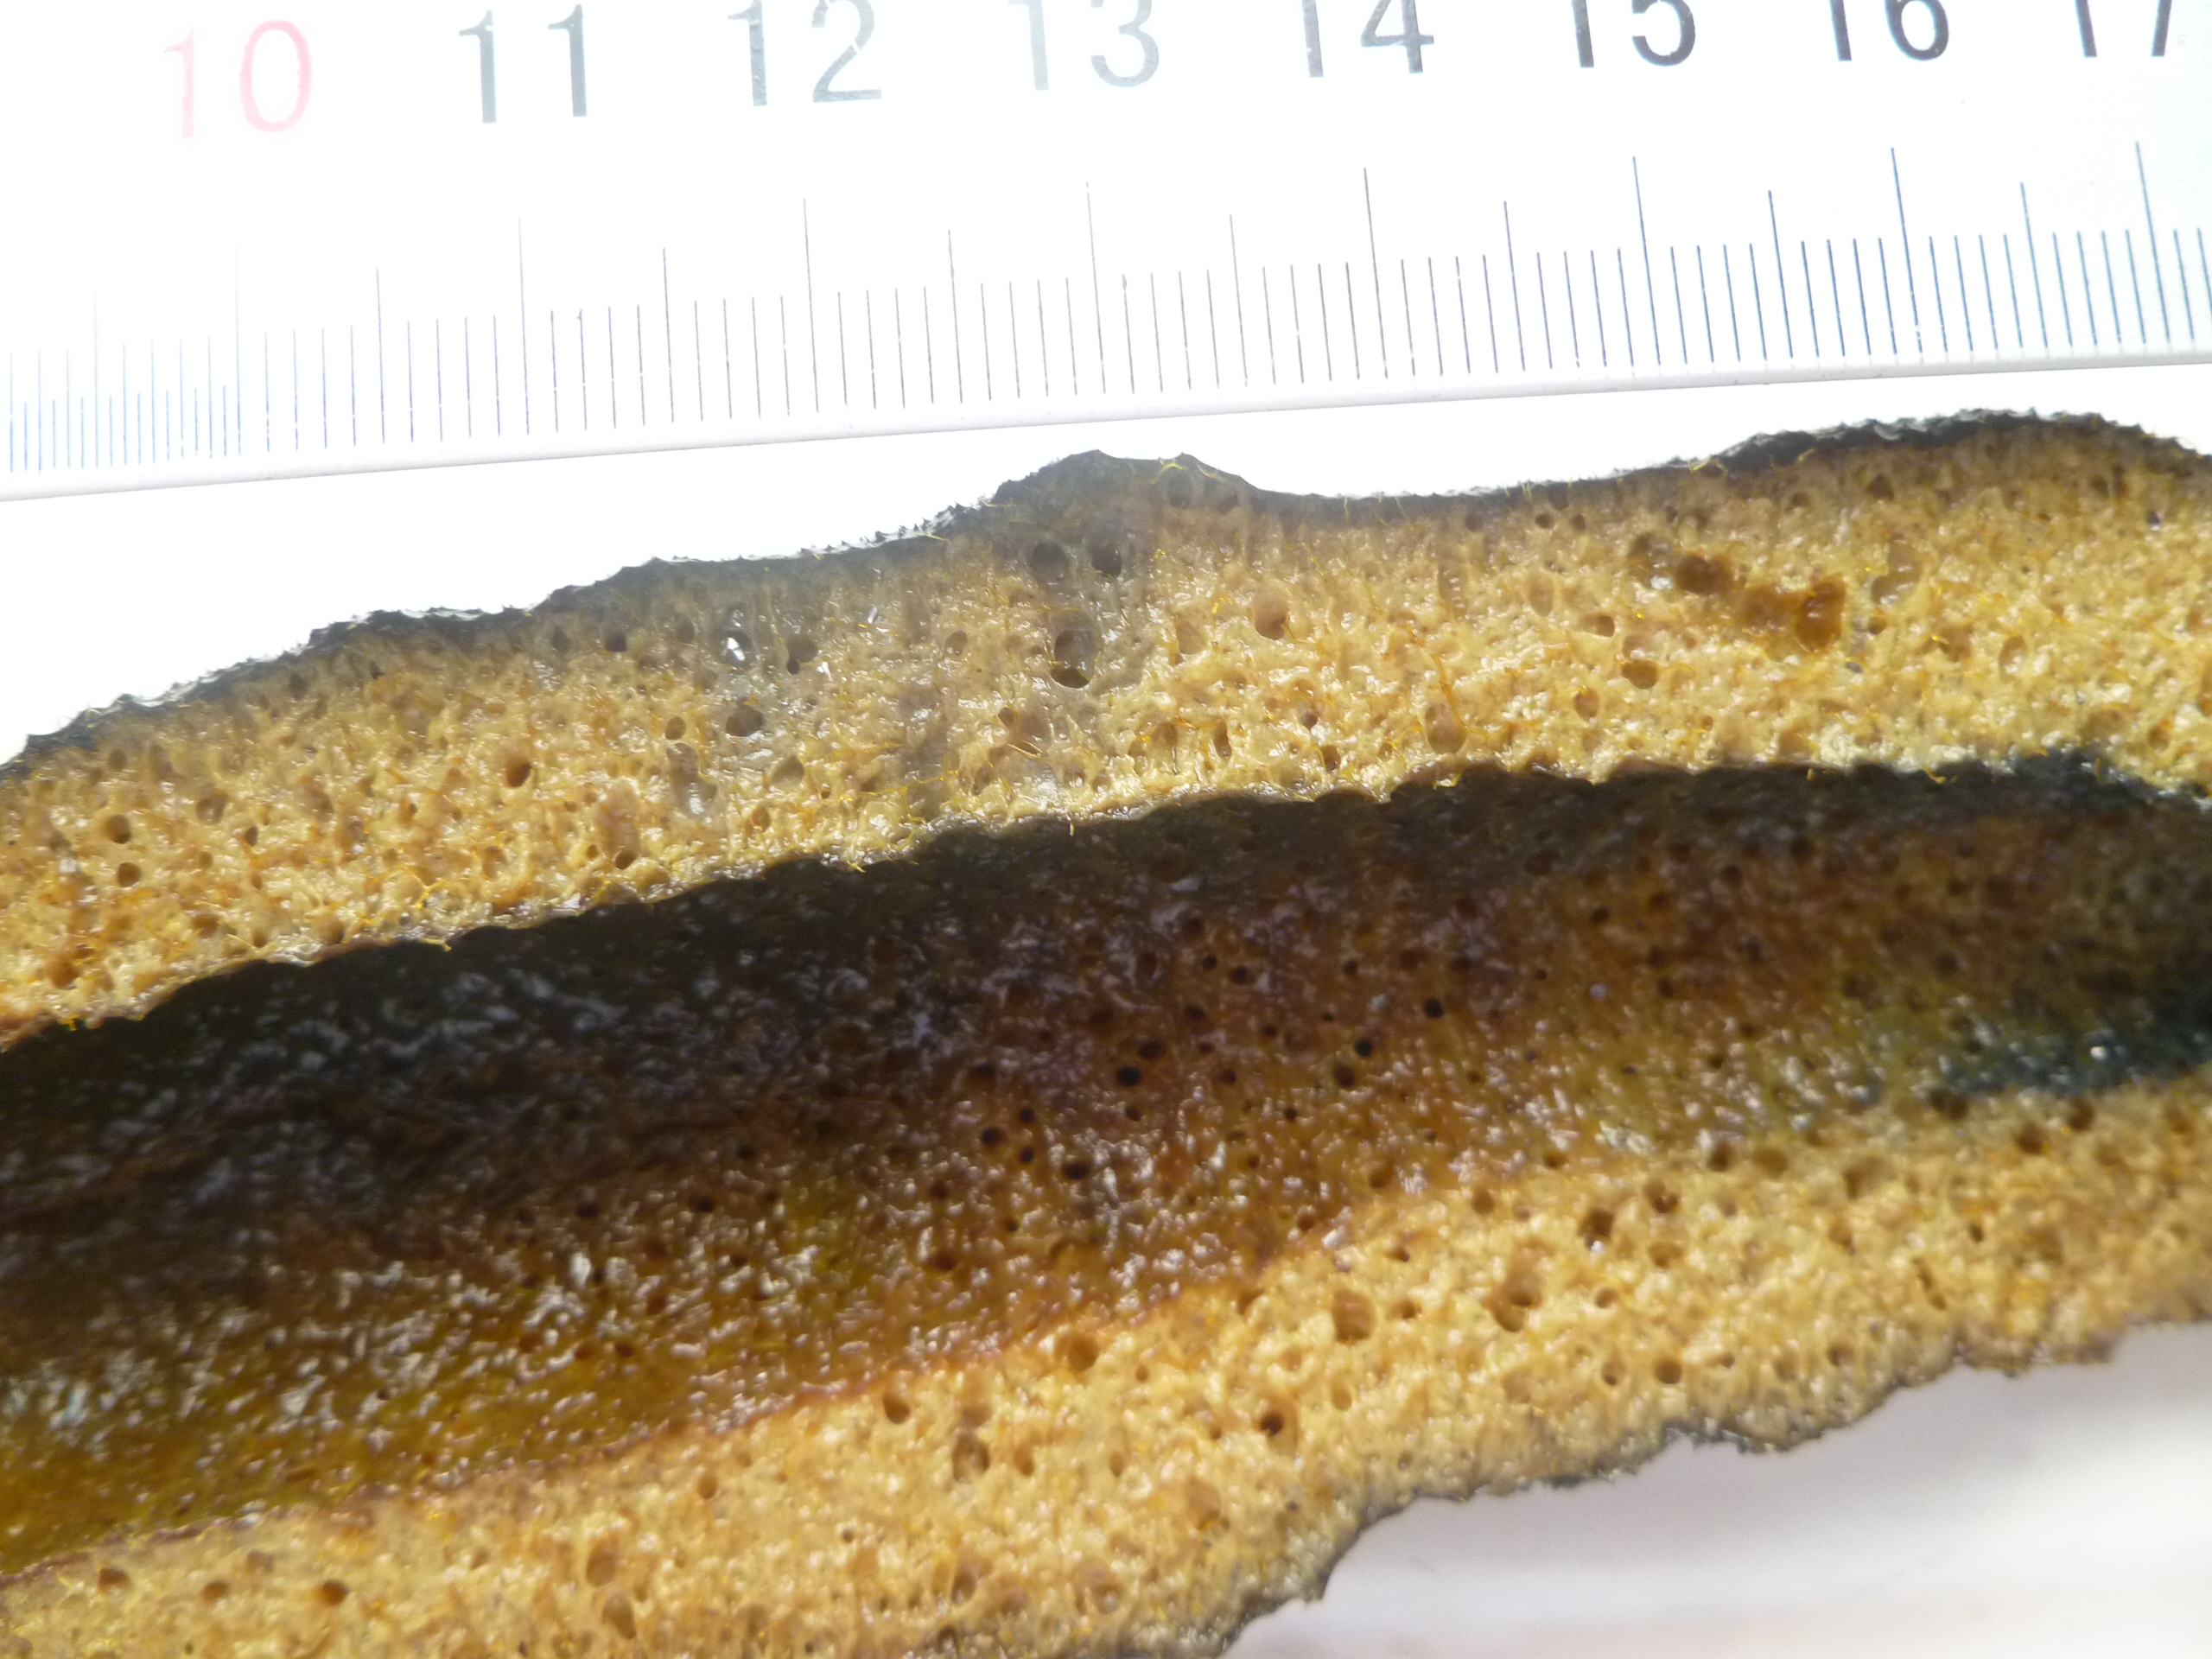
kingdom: Animalia
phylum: Porifera
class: Demospongiae
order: Verongiida
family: Aplysinidae
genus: Aplysina
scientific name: Aplysina fistularis
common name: Candle sponge
